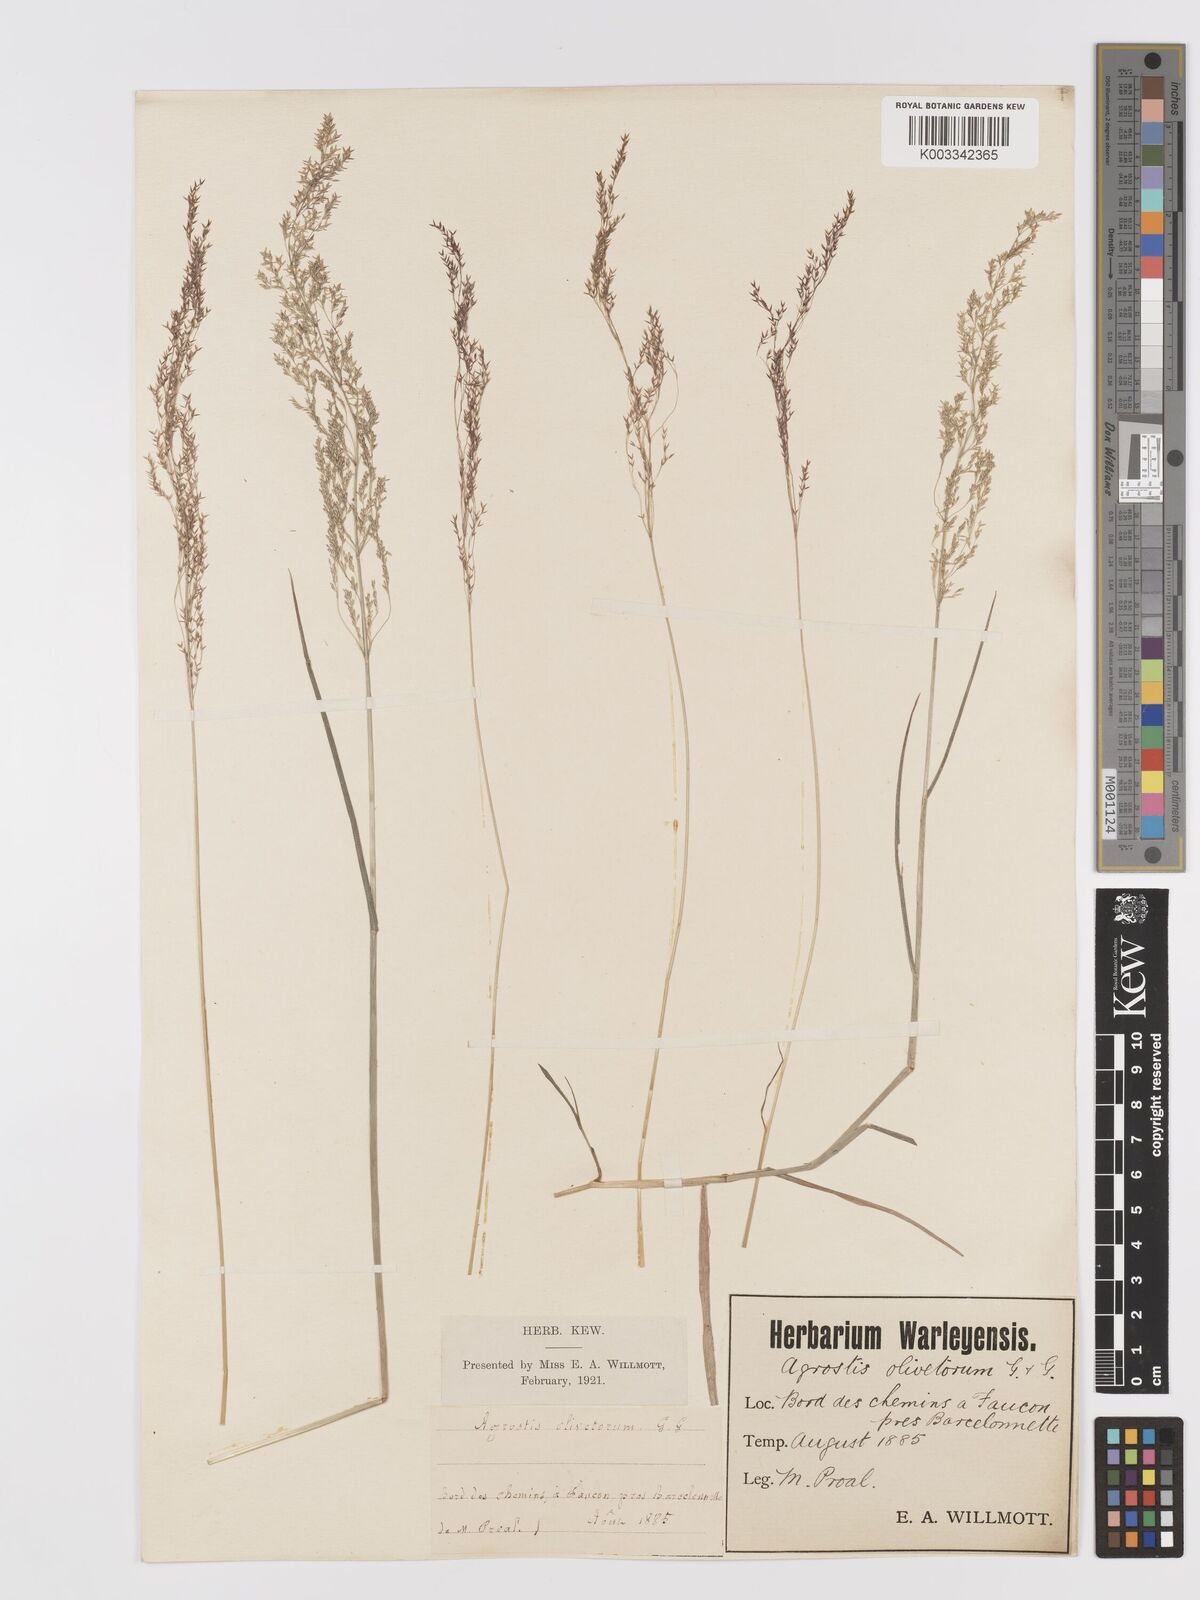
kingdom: Plantae
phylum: Tracheophyta
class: Liliopsida
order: Poales
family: Poaceae
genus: Agrostis
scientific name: Agrostis castellana
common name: Highland bent
